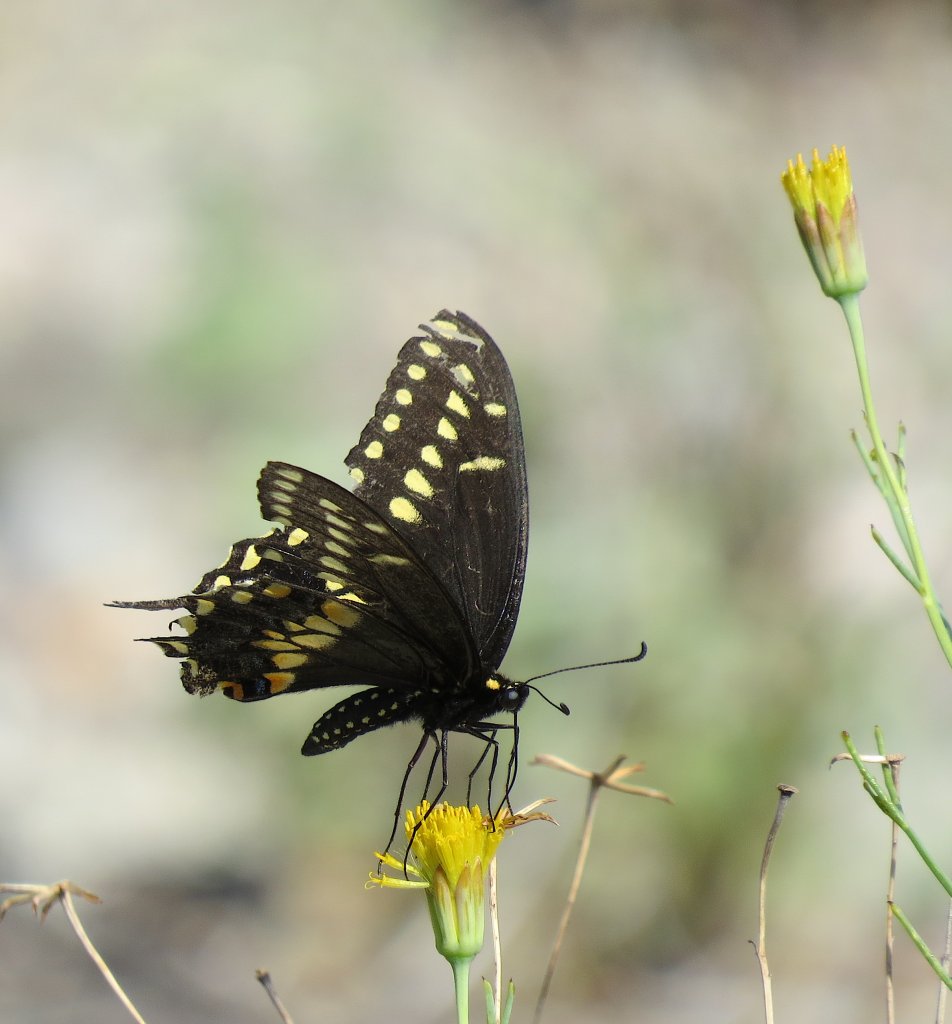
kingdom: Animalia
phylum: Arthropoda
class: Insecta
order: Lepidoptera
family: Papilionidae
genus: Papilio
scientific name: Papilio polyxenes
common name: Black Swallowtail
